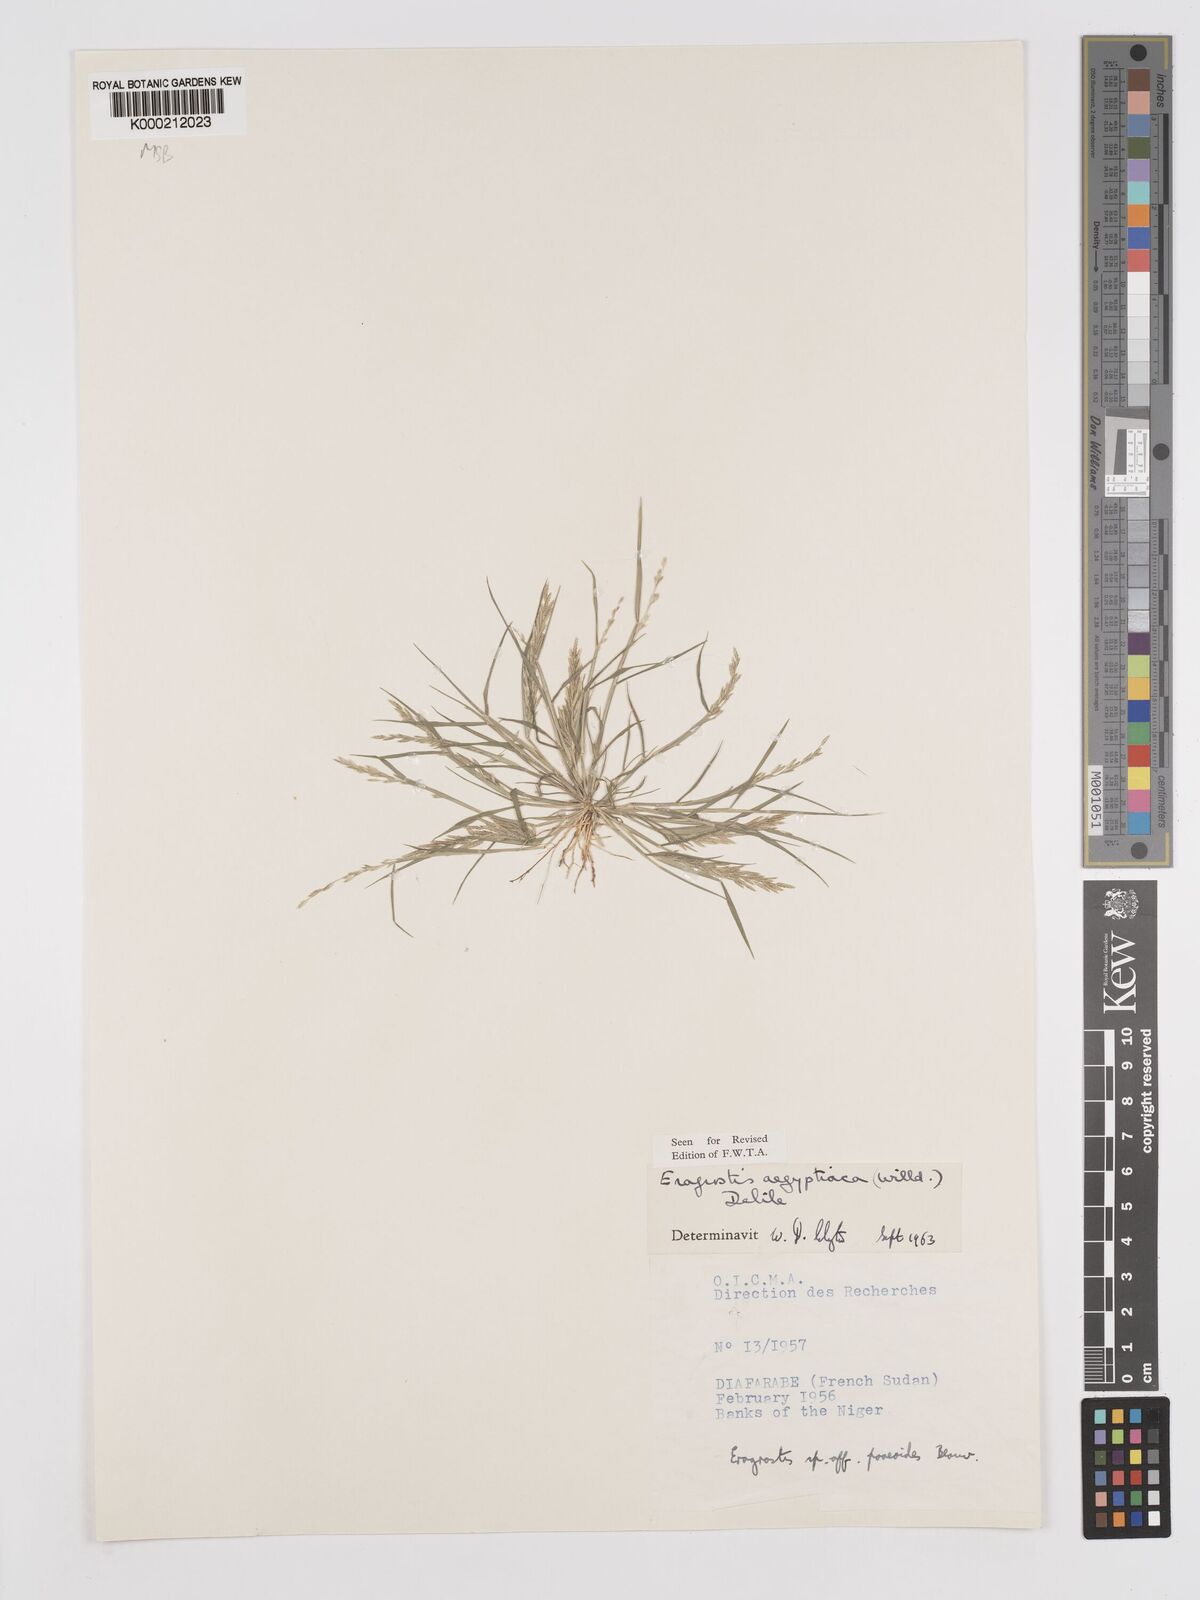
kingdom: Plantae
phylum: Tracheophyta
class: Liliopsida
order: Poales
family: Poaceae
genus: Eragrostis
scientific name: Eragrostis aegyptiaca
